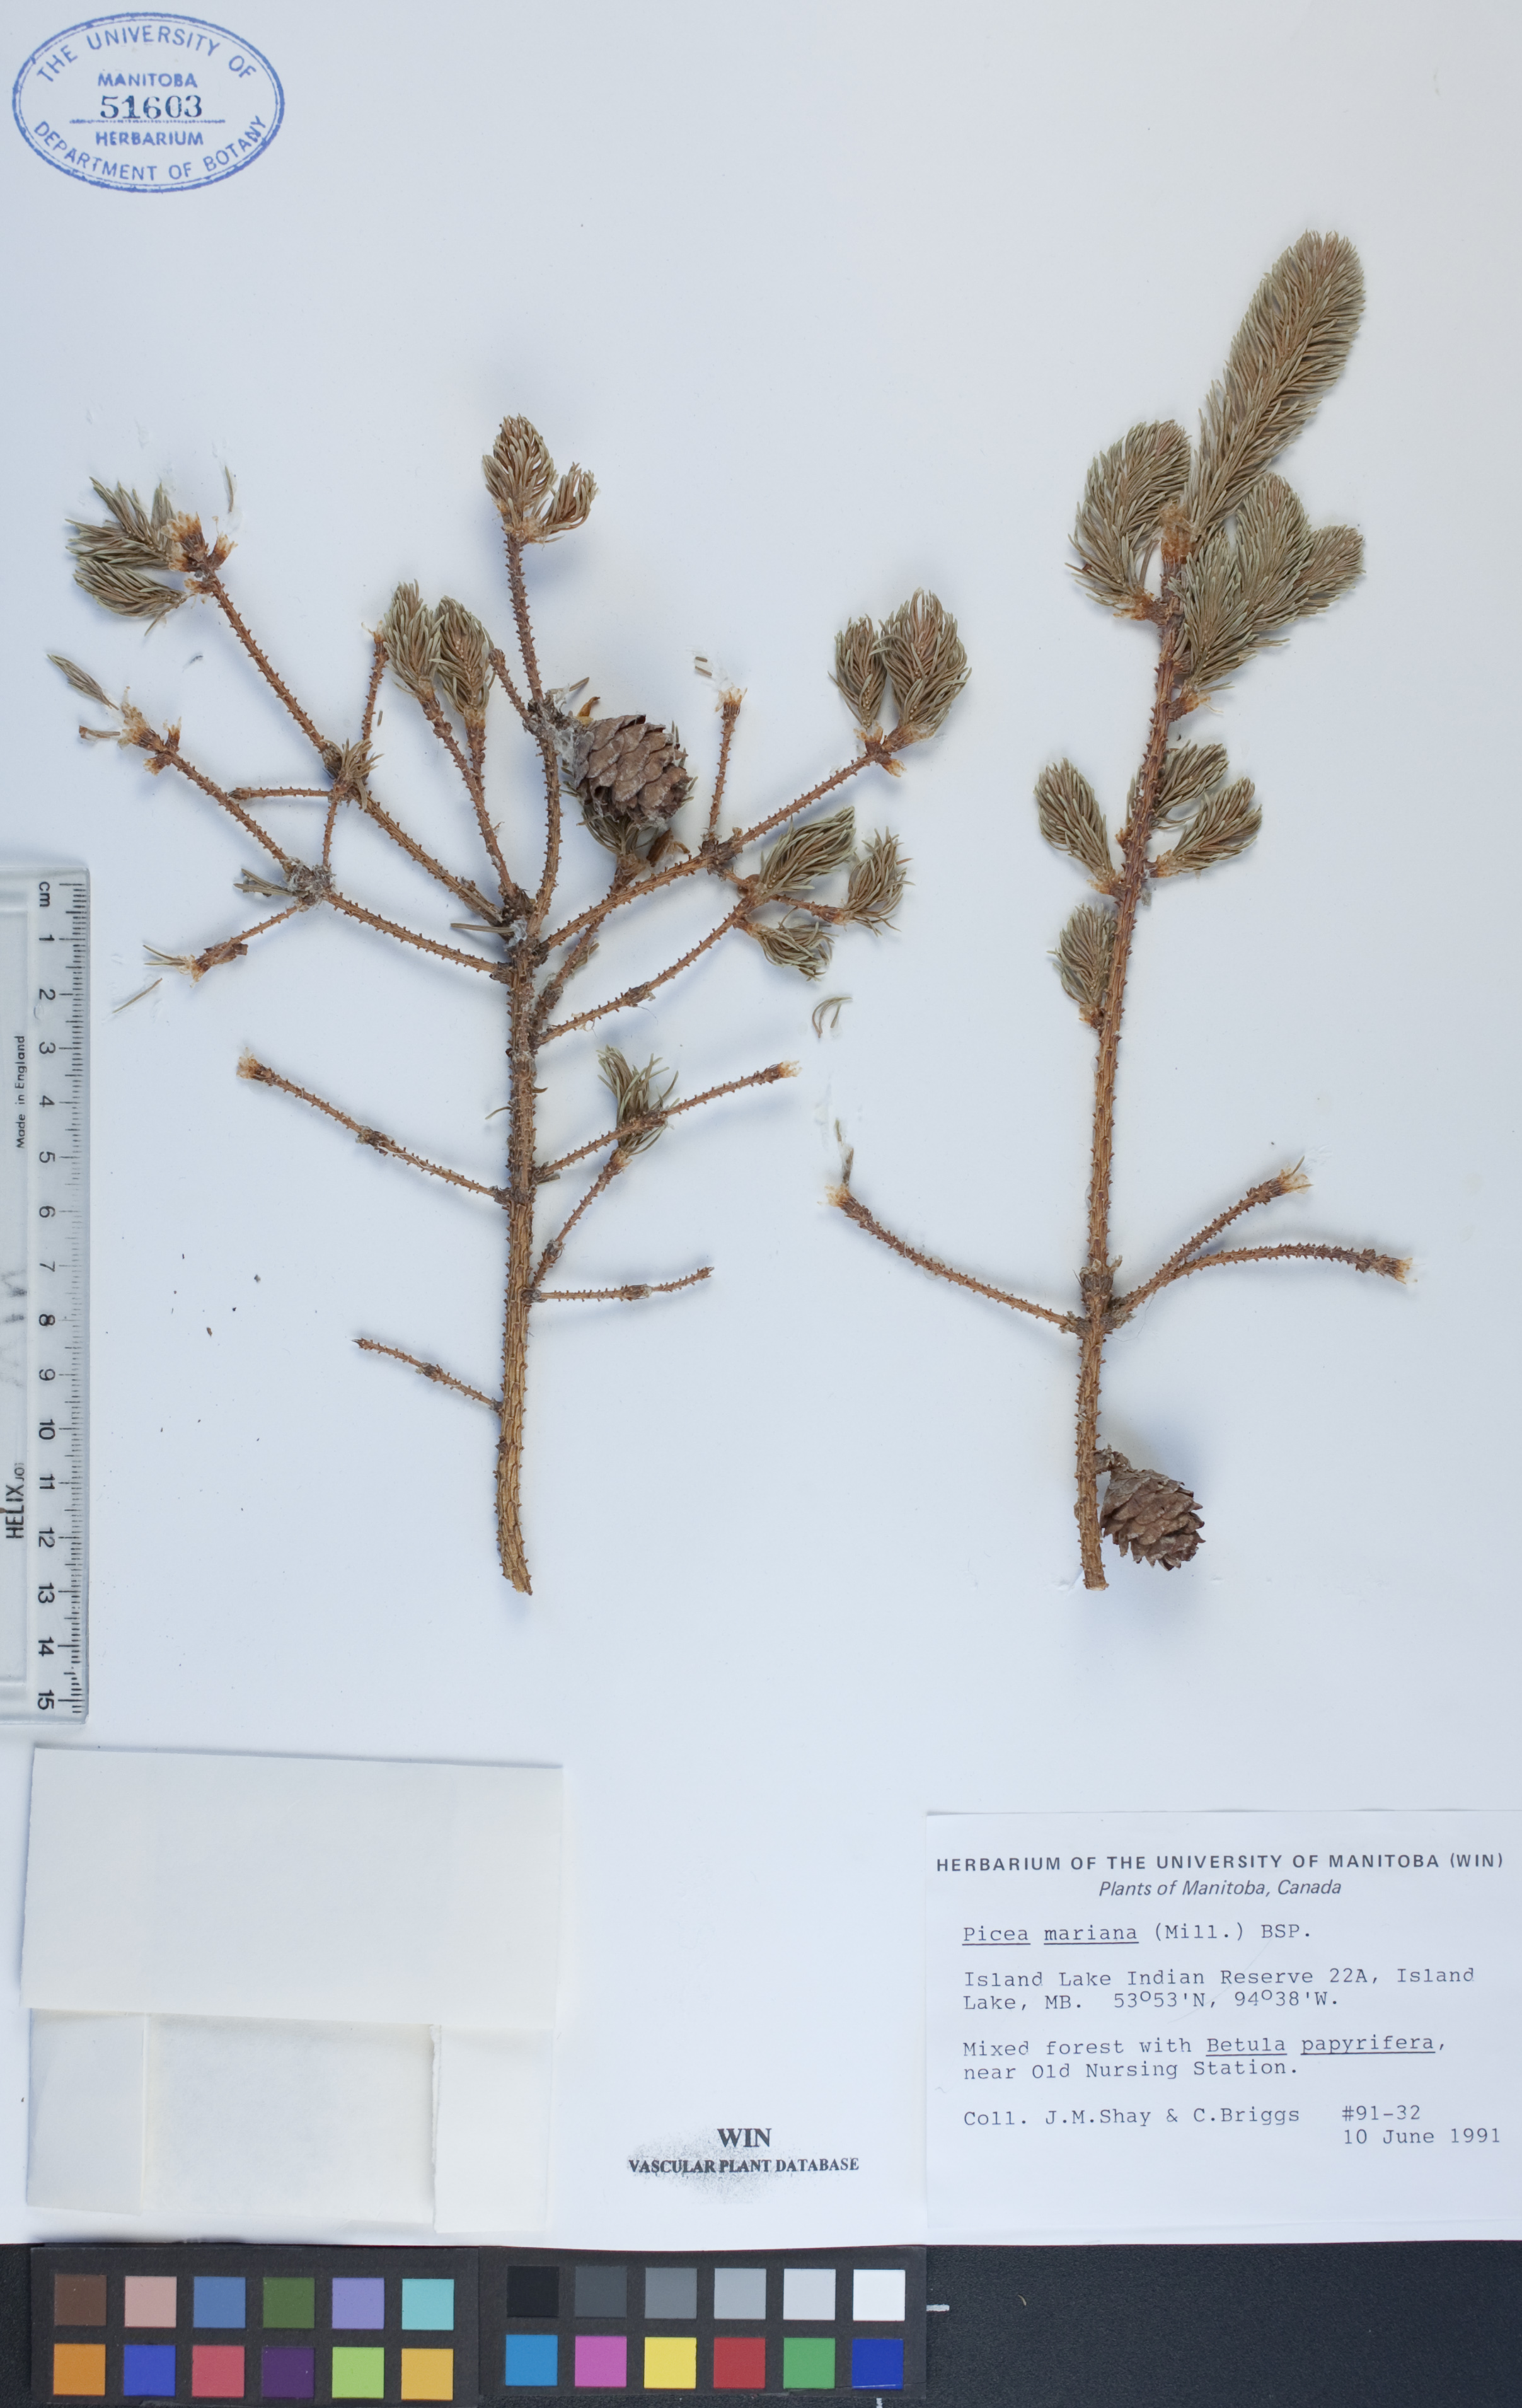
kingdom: Plantae
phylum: Tracheophyta
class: Pinopsida
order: Pinales
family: Pinaceae
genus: Picea
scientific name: Picea mariana
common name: Black spruce
